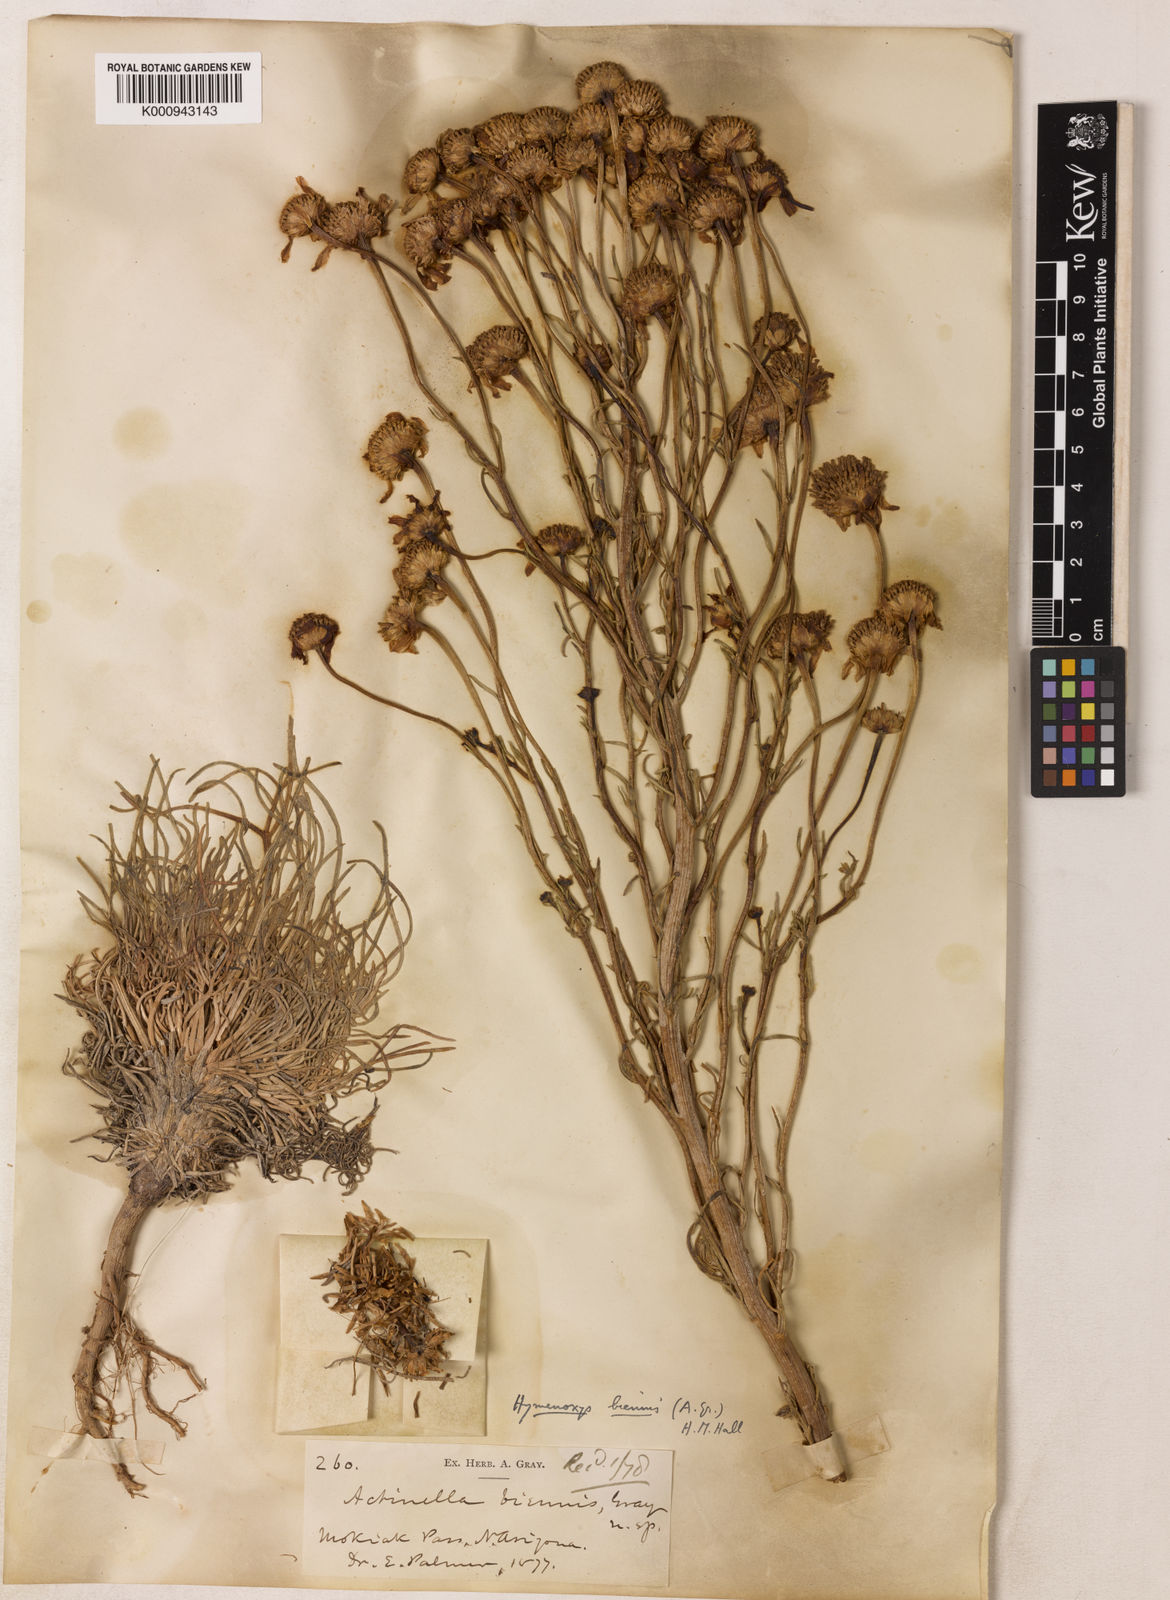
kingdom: Plantae
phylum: Tracheophyta
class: Magnoliopsida
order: Asterales
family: Asteraceae
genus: Tetraneuris
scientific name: Tetraneuris linearifolia
